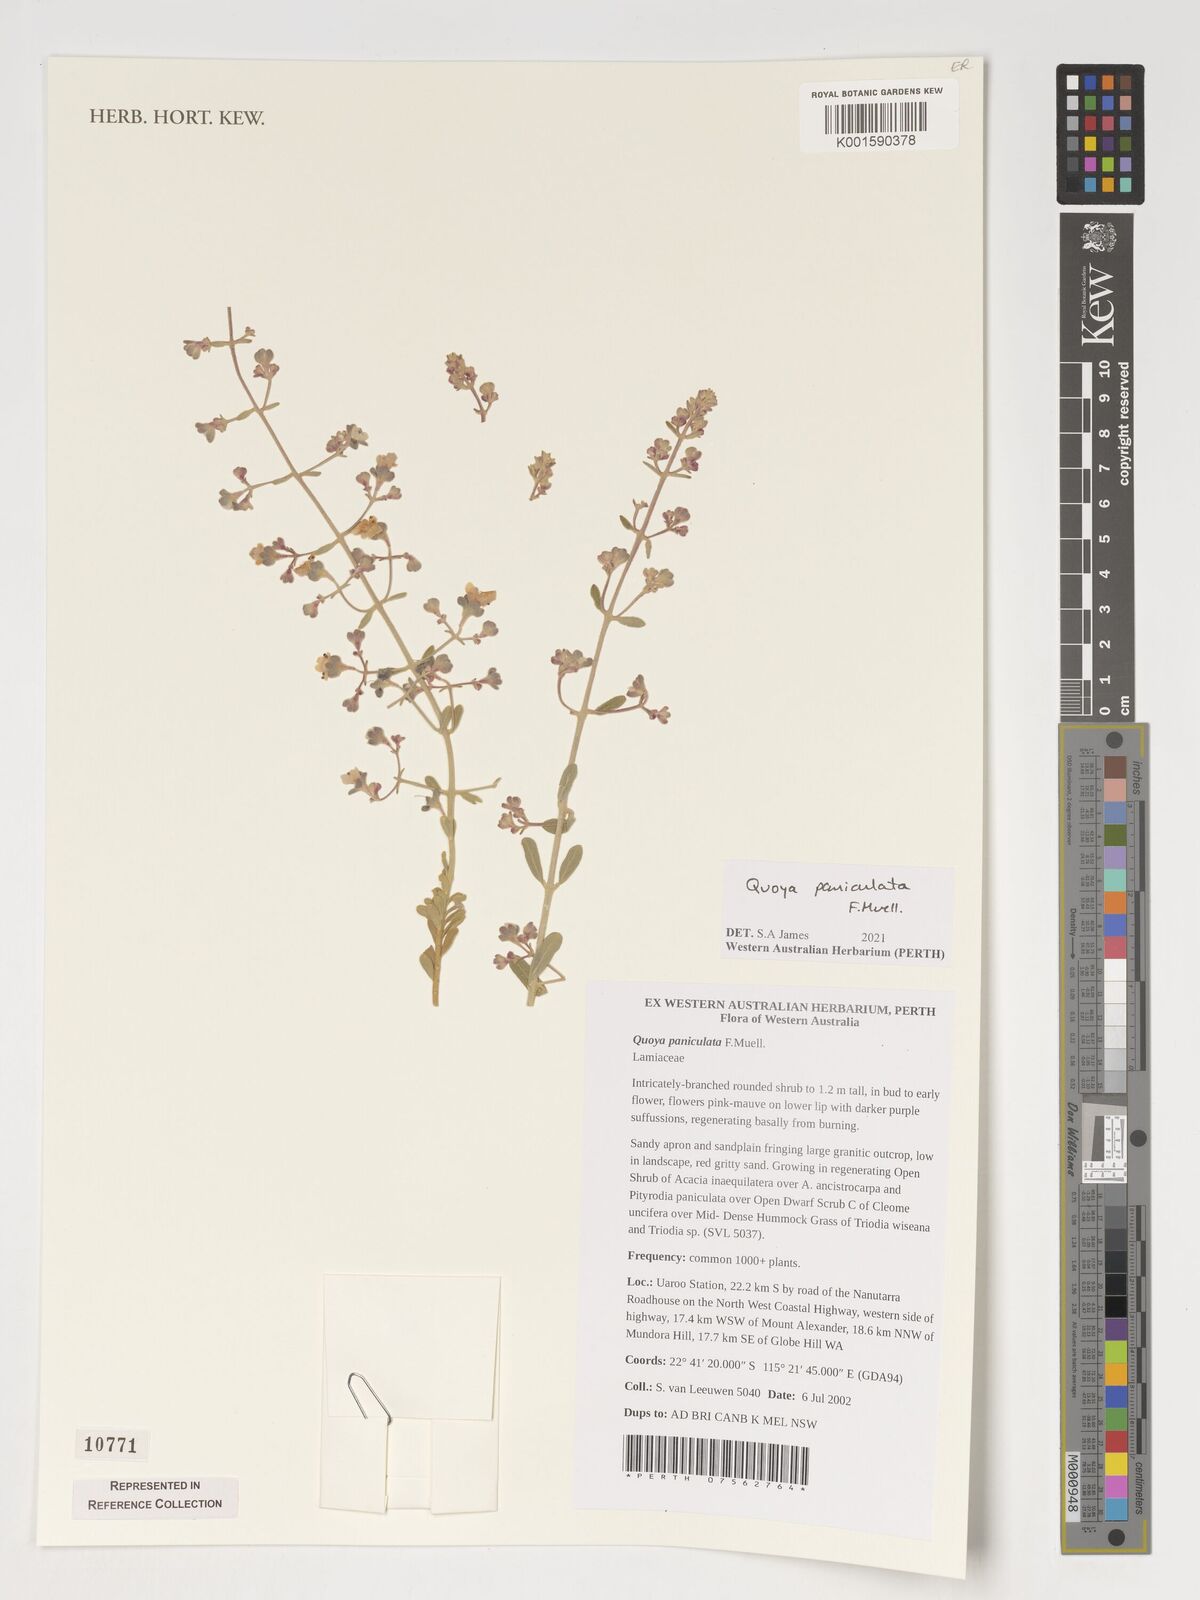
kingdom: Plantae
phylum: Tracheophyta
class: Magnoliopsida
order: Lamiales
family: Lamiaceae
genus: Quoya
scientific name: Quoya paniculata
